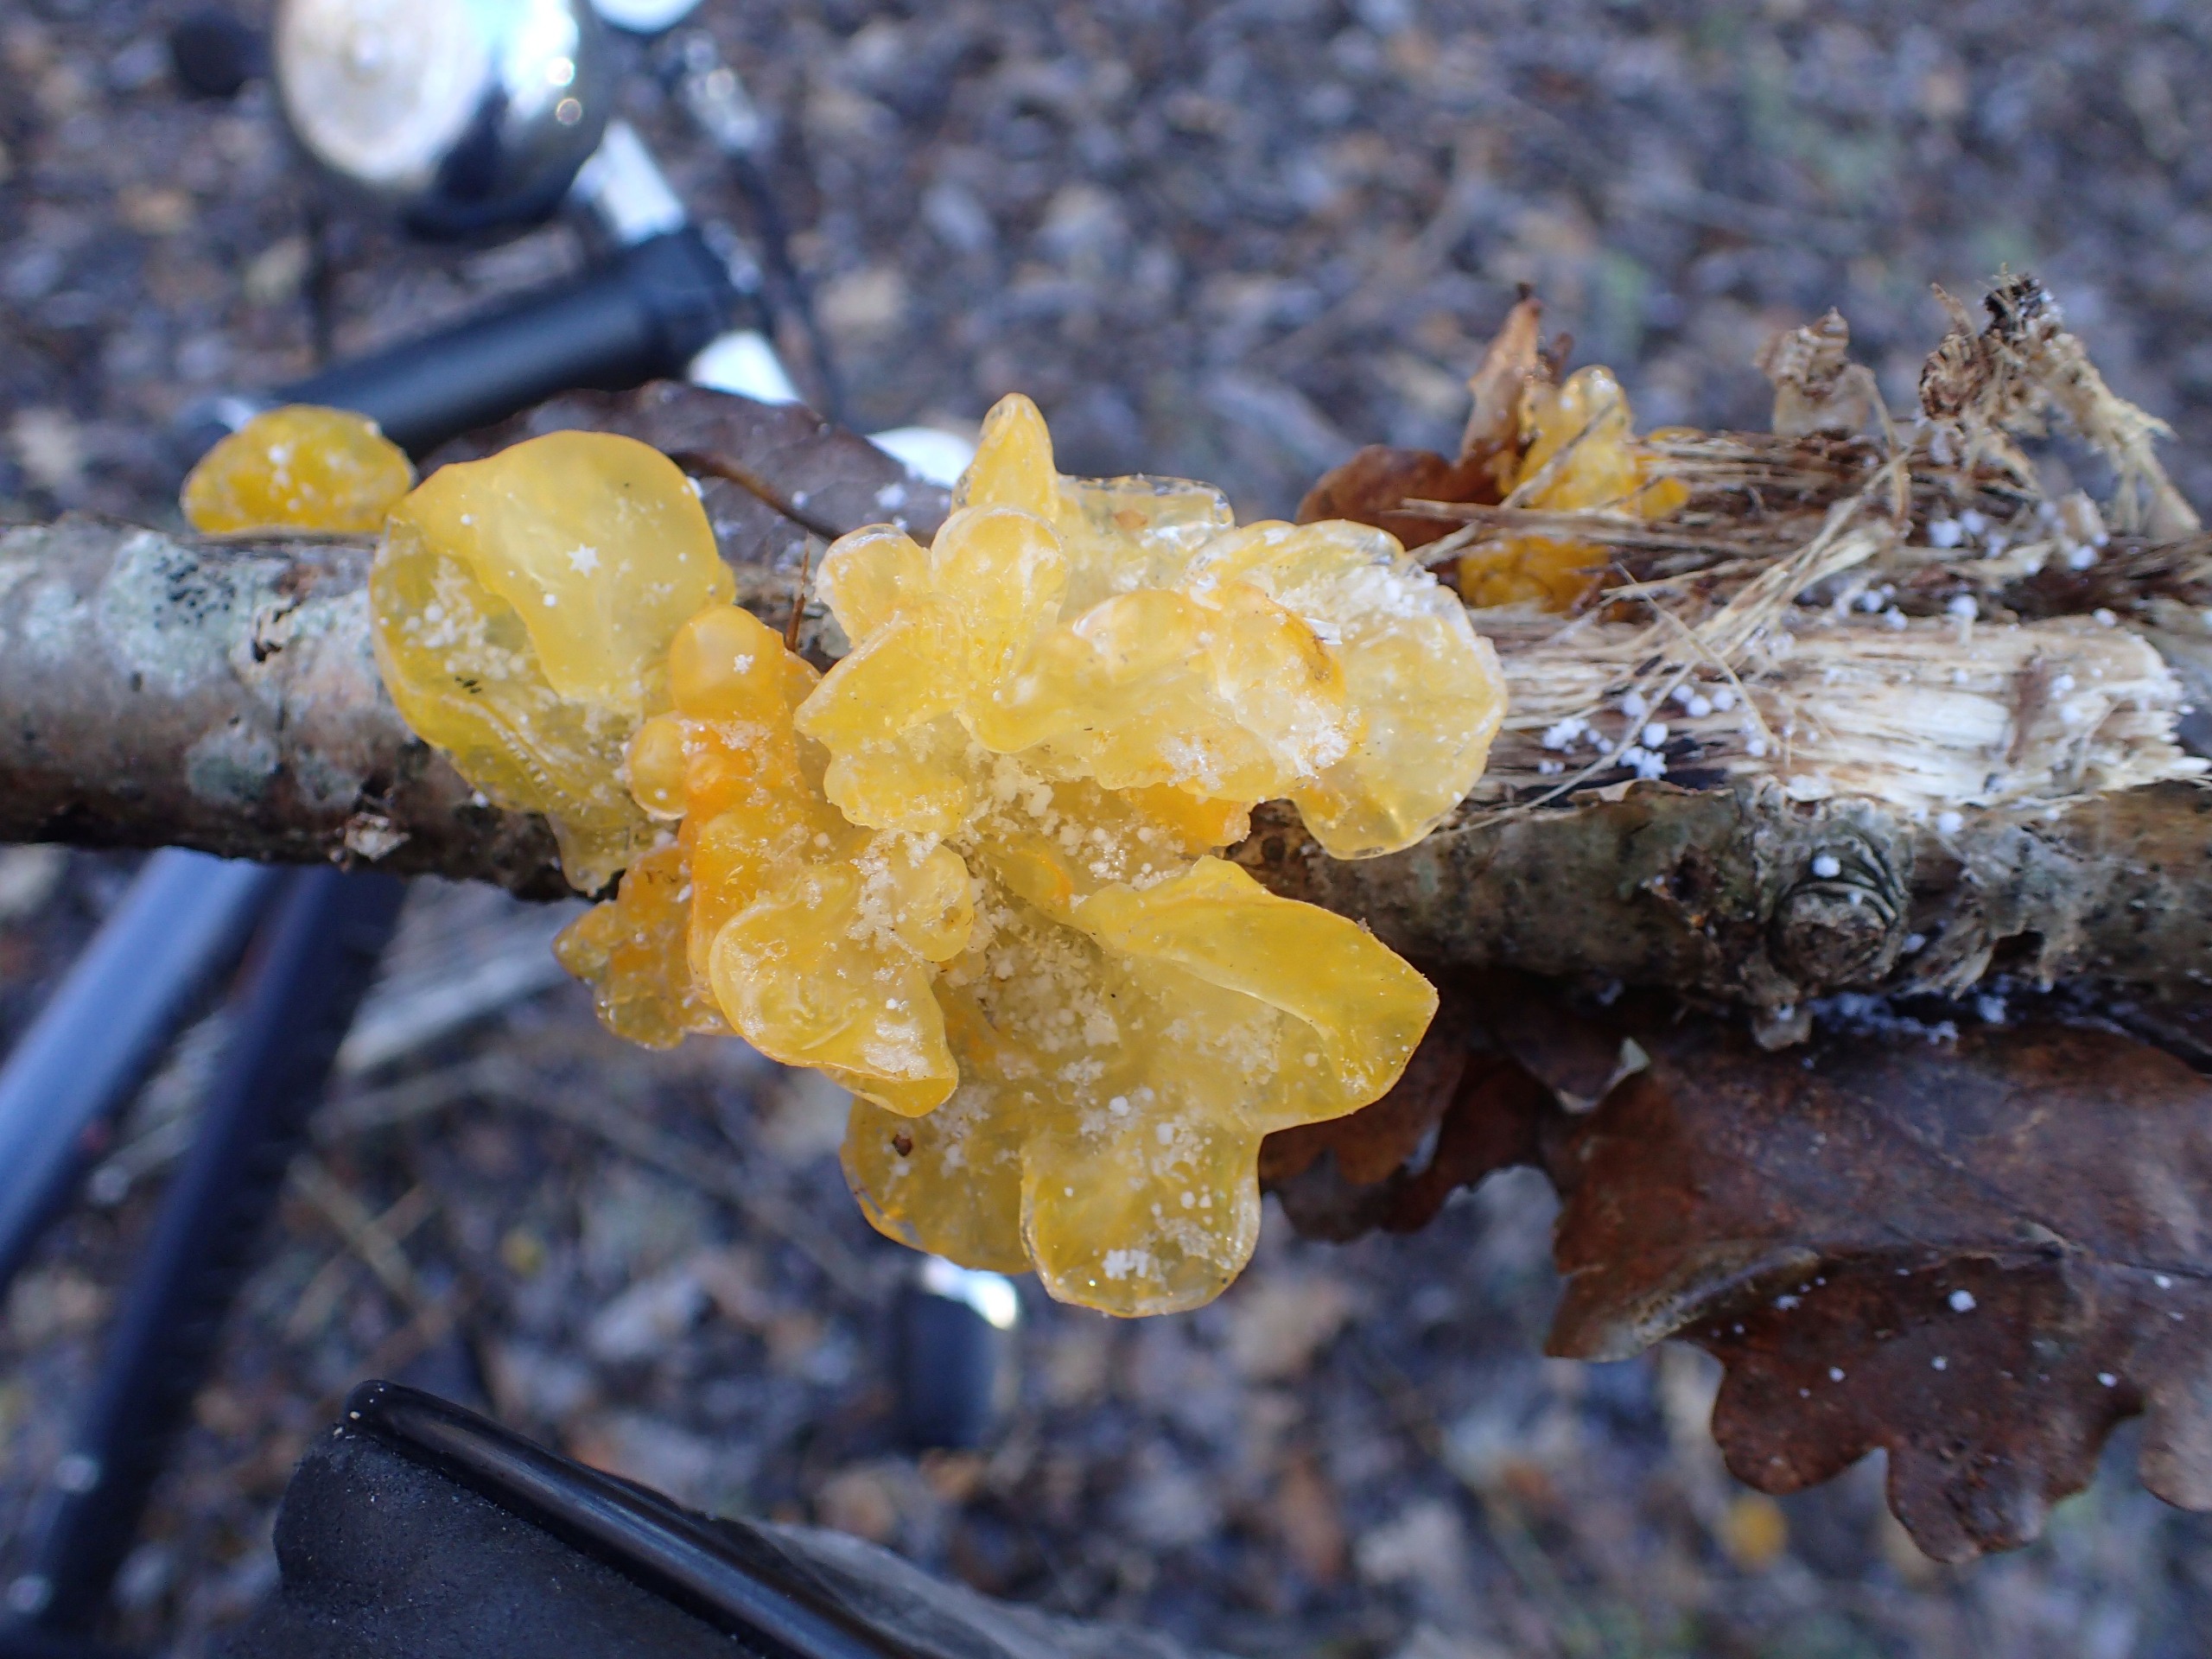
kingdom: Fungi
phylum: Basidiomycota
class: Tremellomycetes
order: Tremellales
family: Tremellaceae
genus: Tremella
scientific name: Tremella mesenterica
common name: Gul bævresvamp
